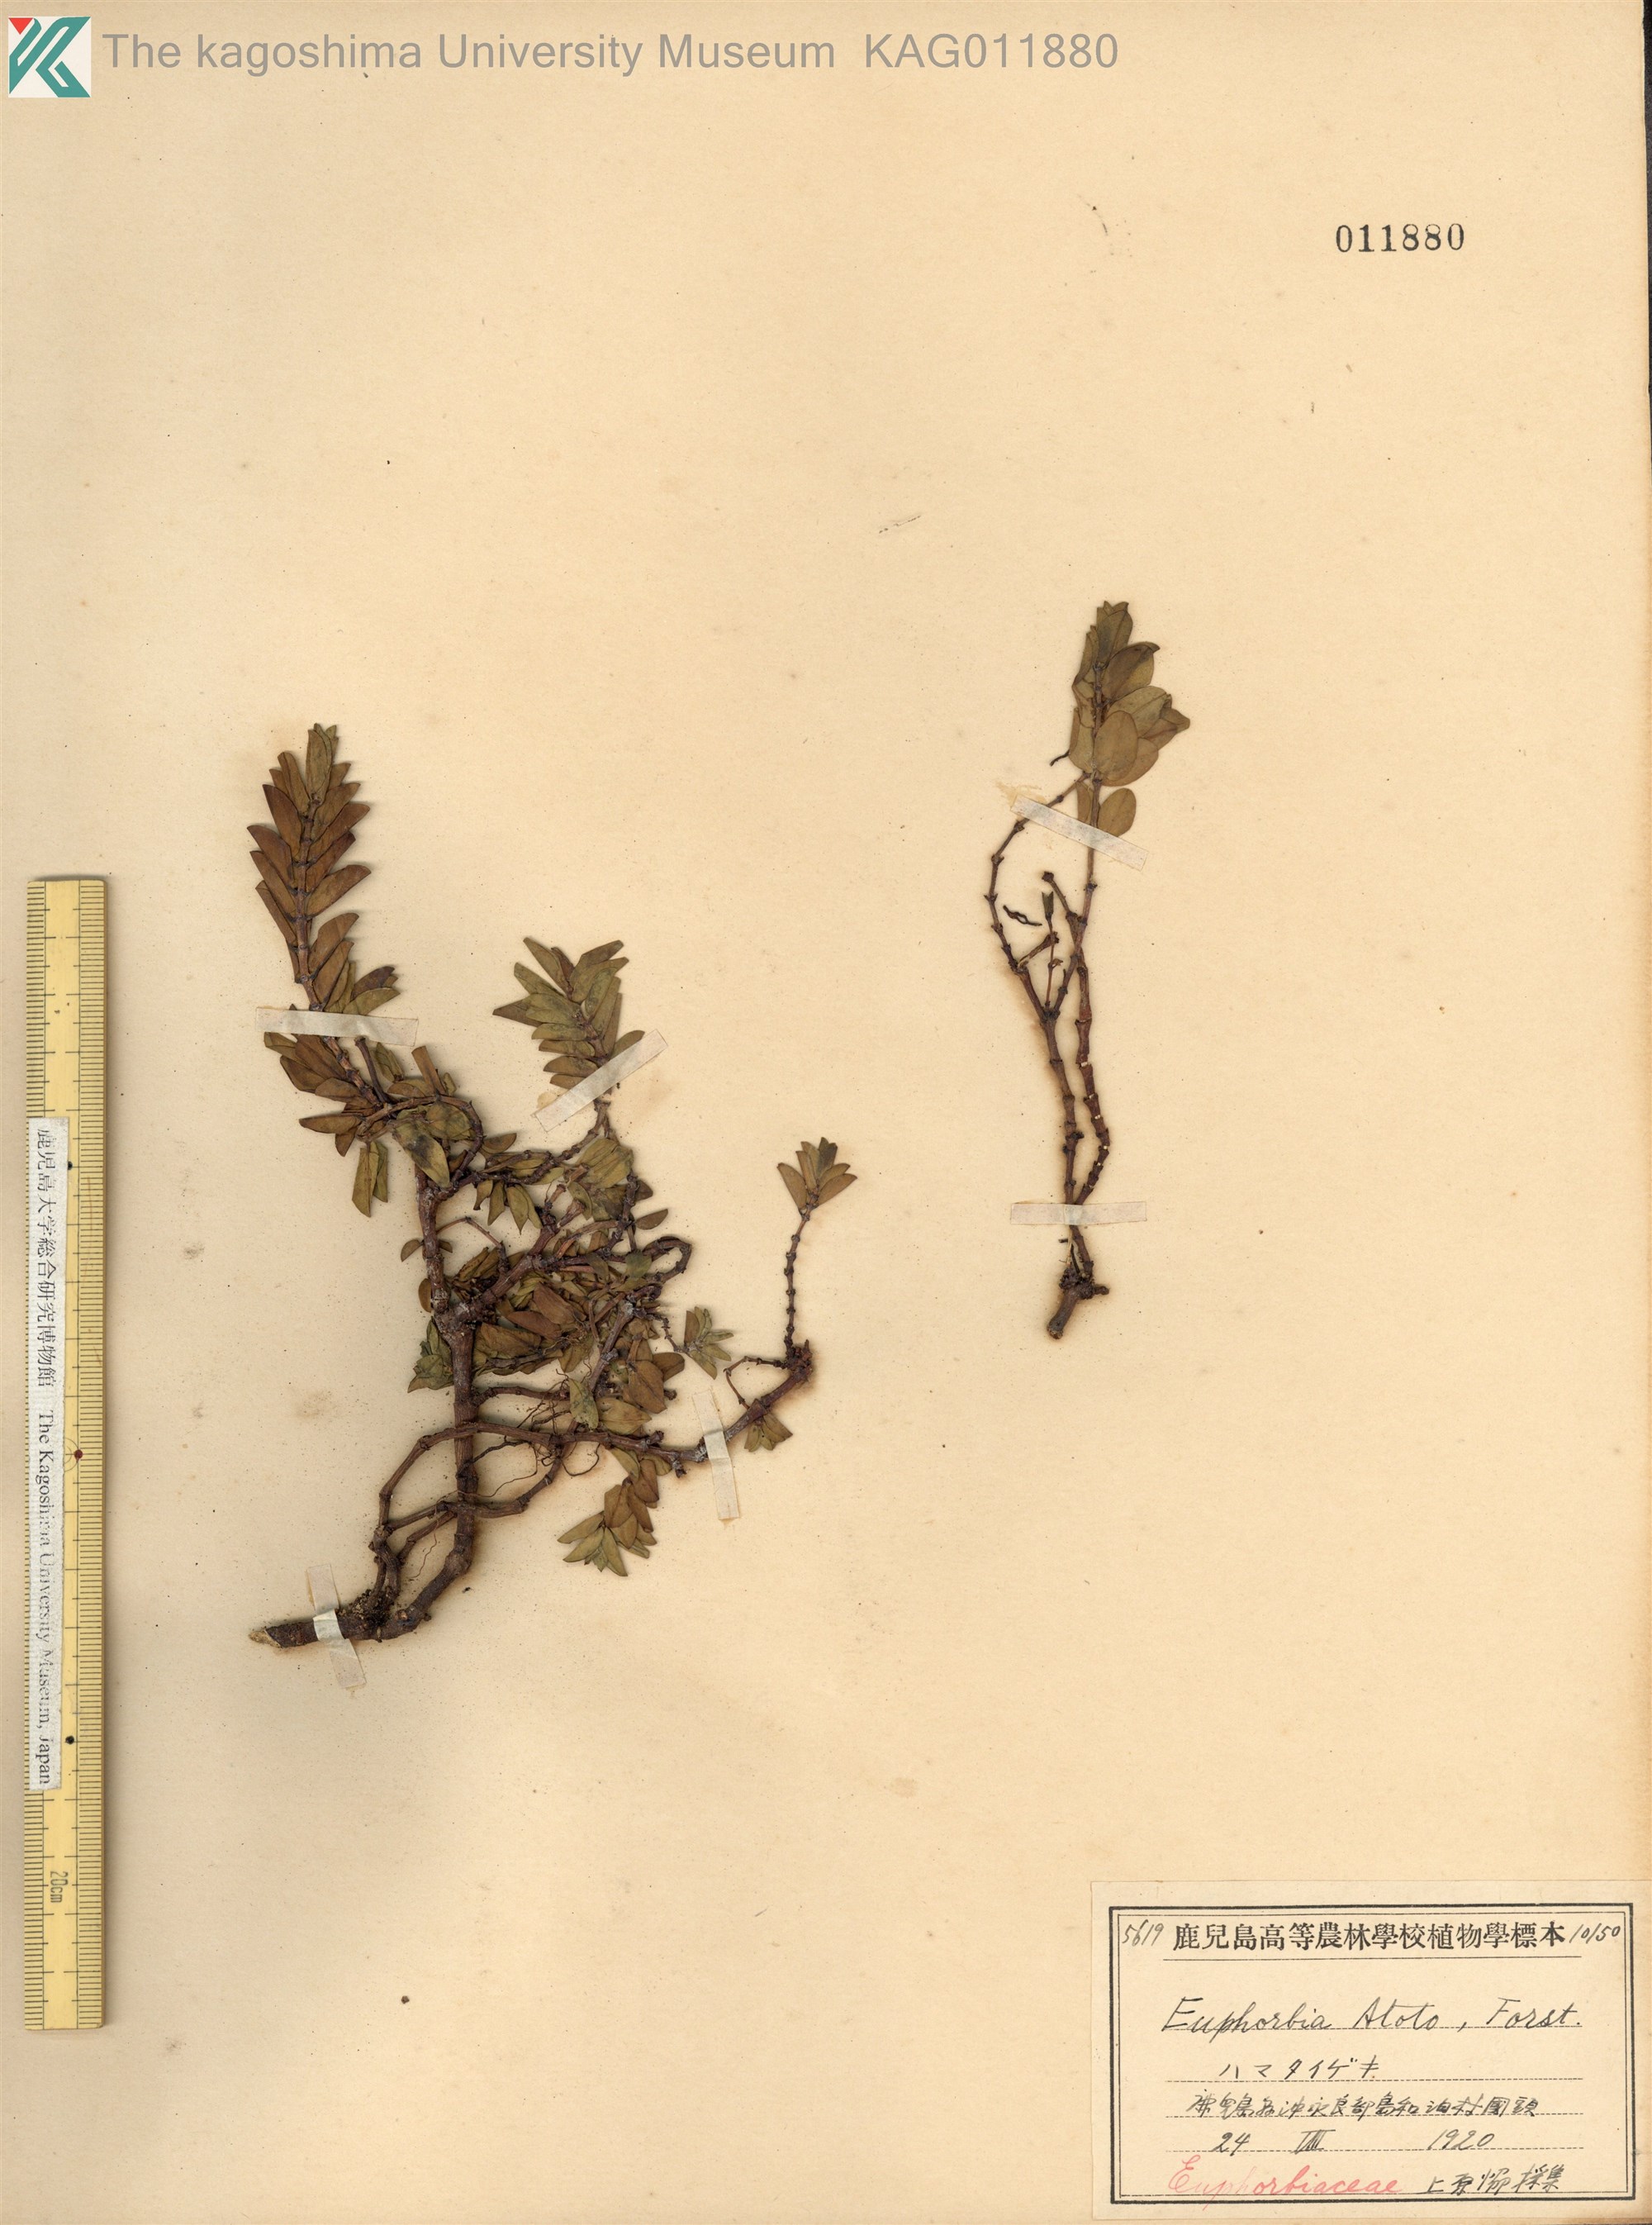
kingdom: Plantae
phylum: Tracheophyta
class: Magnoliopsida
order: Malpighiales
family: Euphorbiaceae
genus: Euphorbia
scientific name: Euphorbia chamissonis
